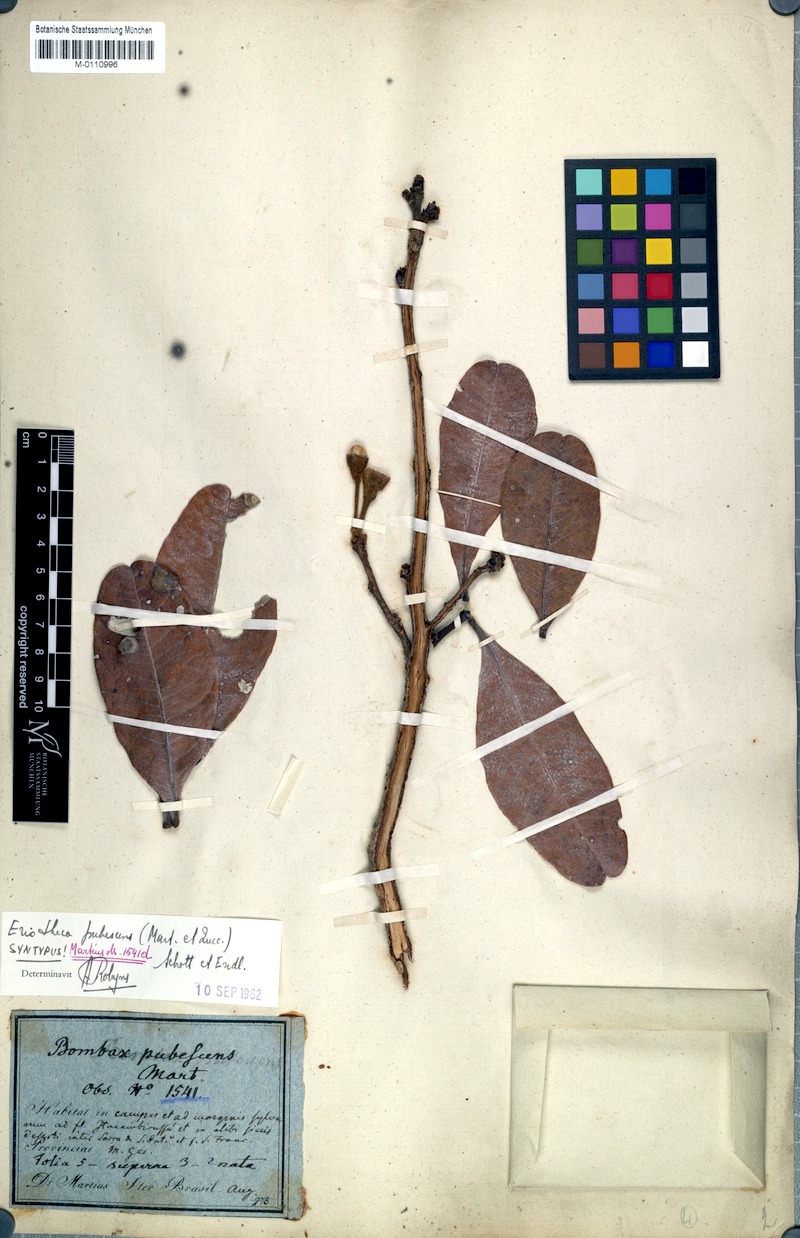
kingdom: Plantae
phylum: Tracheophyta
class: Magnoliopsida
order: Malvales
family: Malvaceae
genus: Eriotheca
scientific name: Eriotheca pubescens
